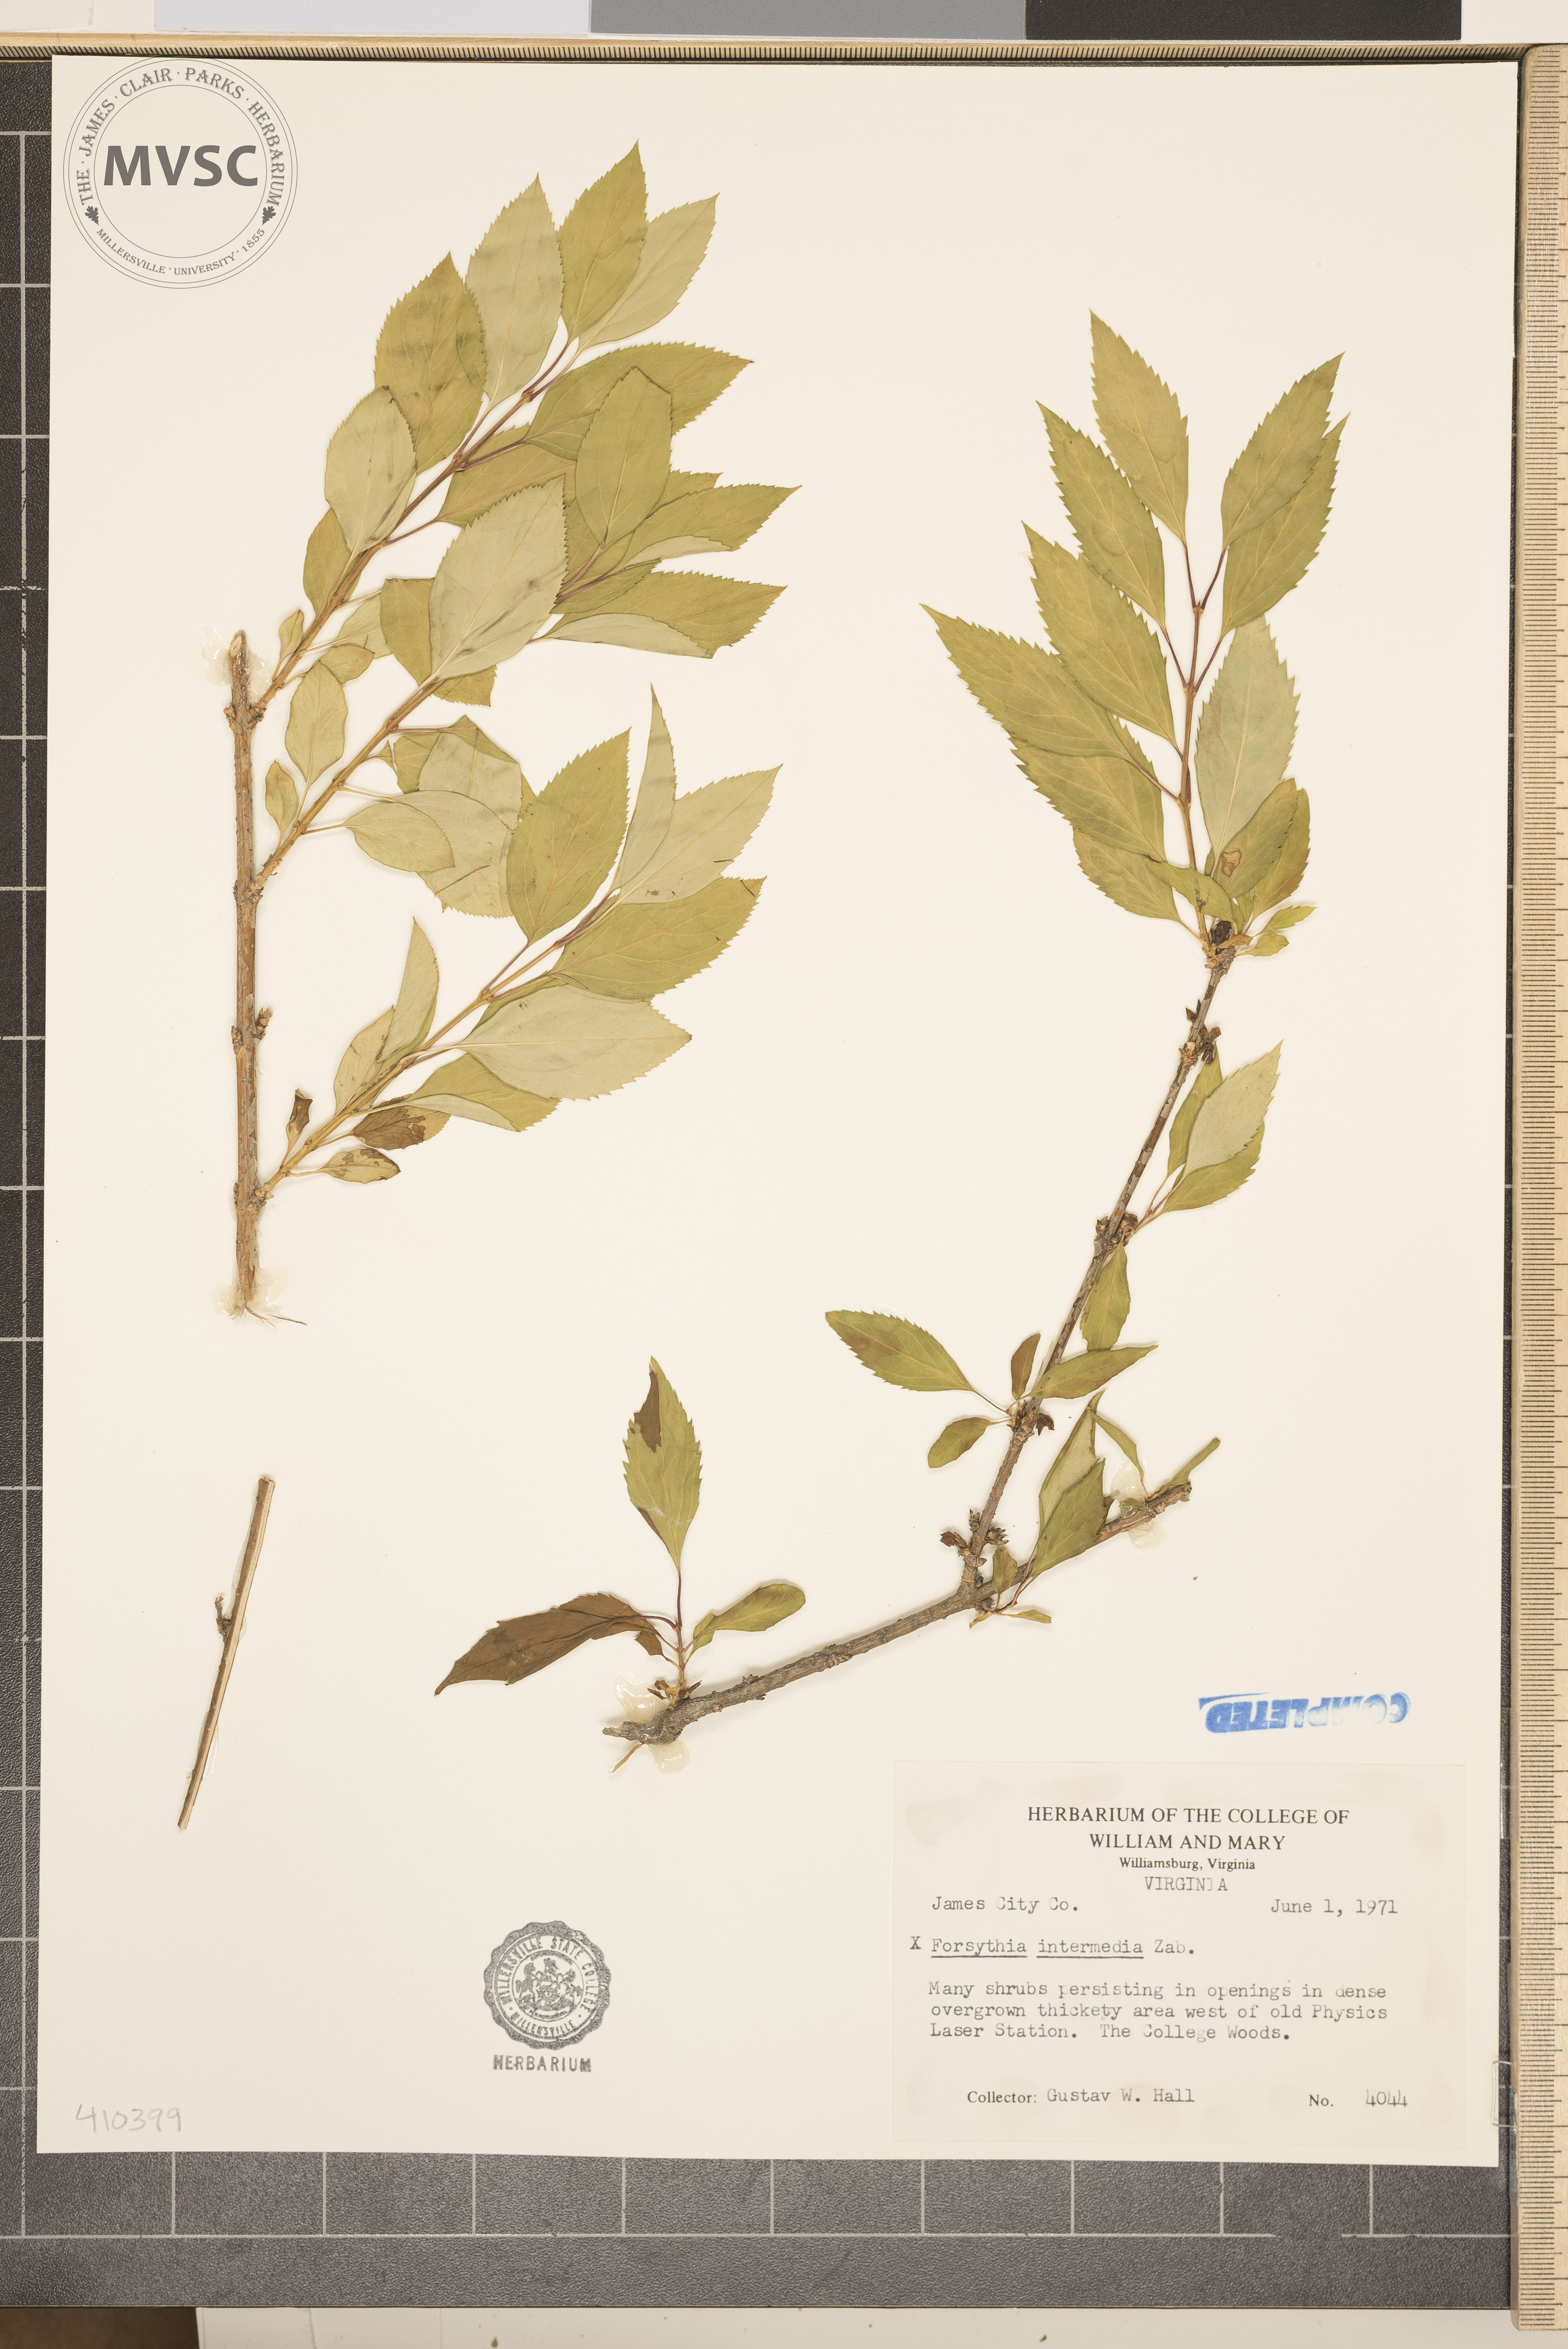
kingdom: Plantae
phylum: Tracheophyta
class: Magnoliopsida
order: Lamiales
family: Oleaceae
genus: Forsythia
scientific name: Forsythia intermedia
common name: forsythia
